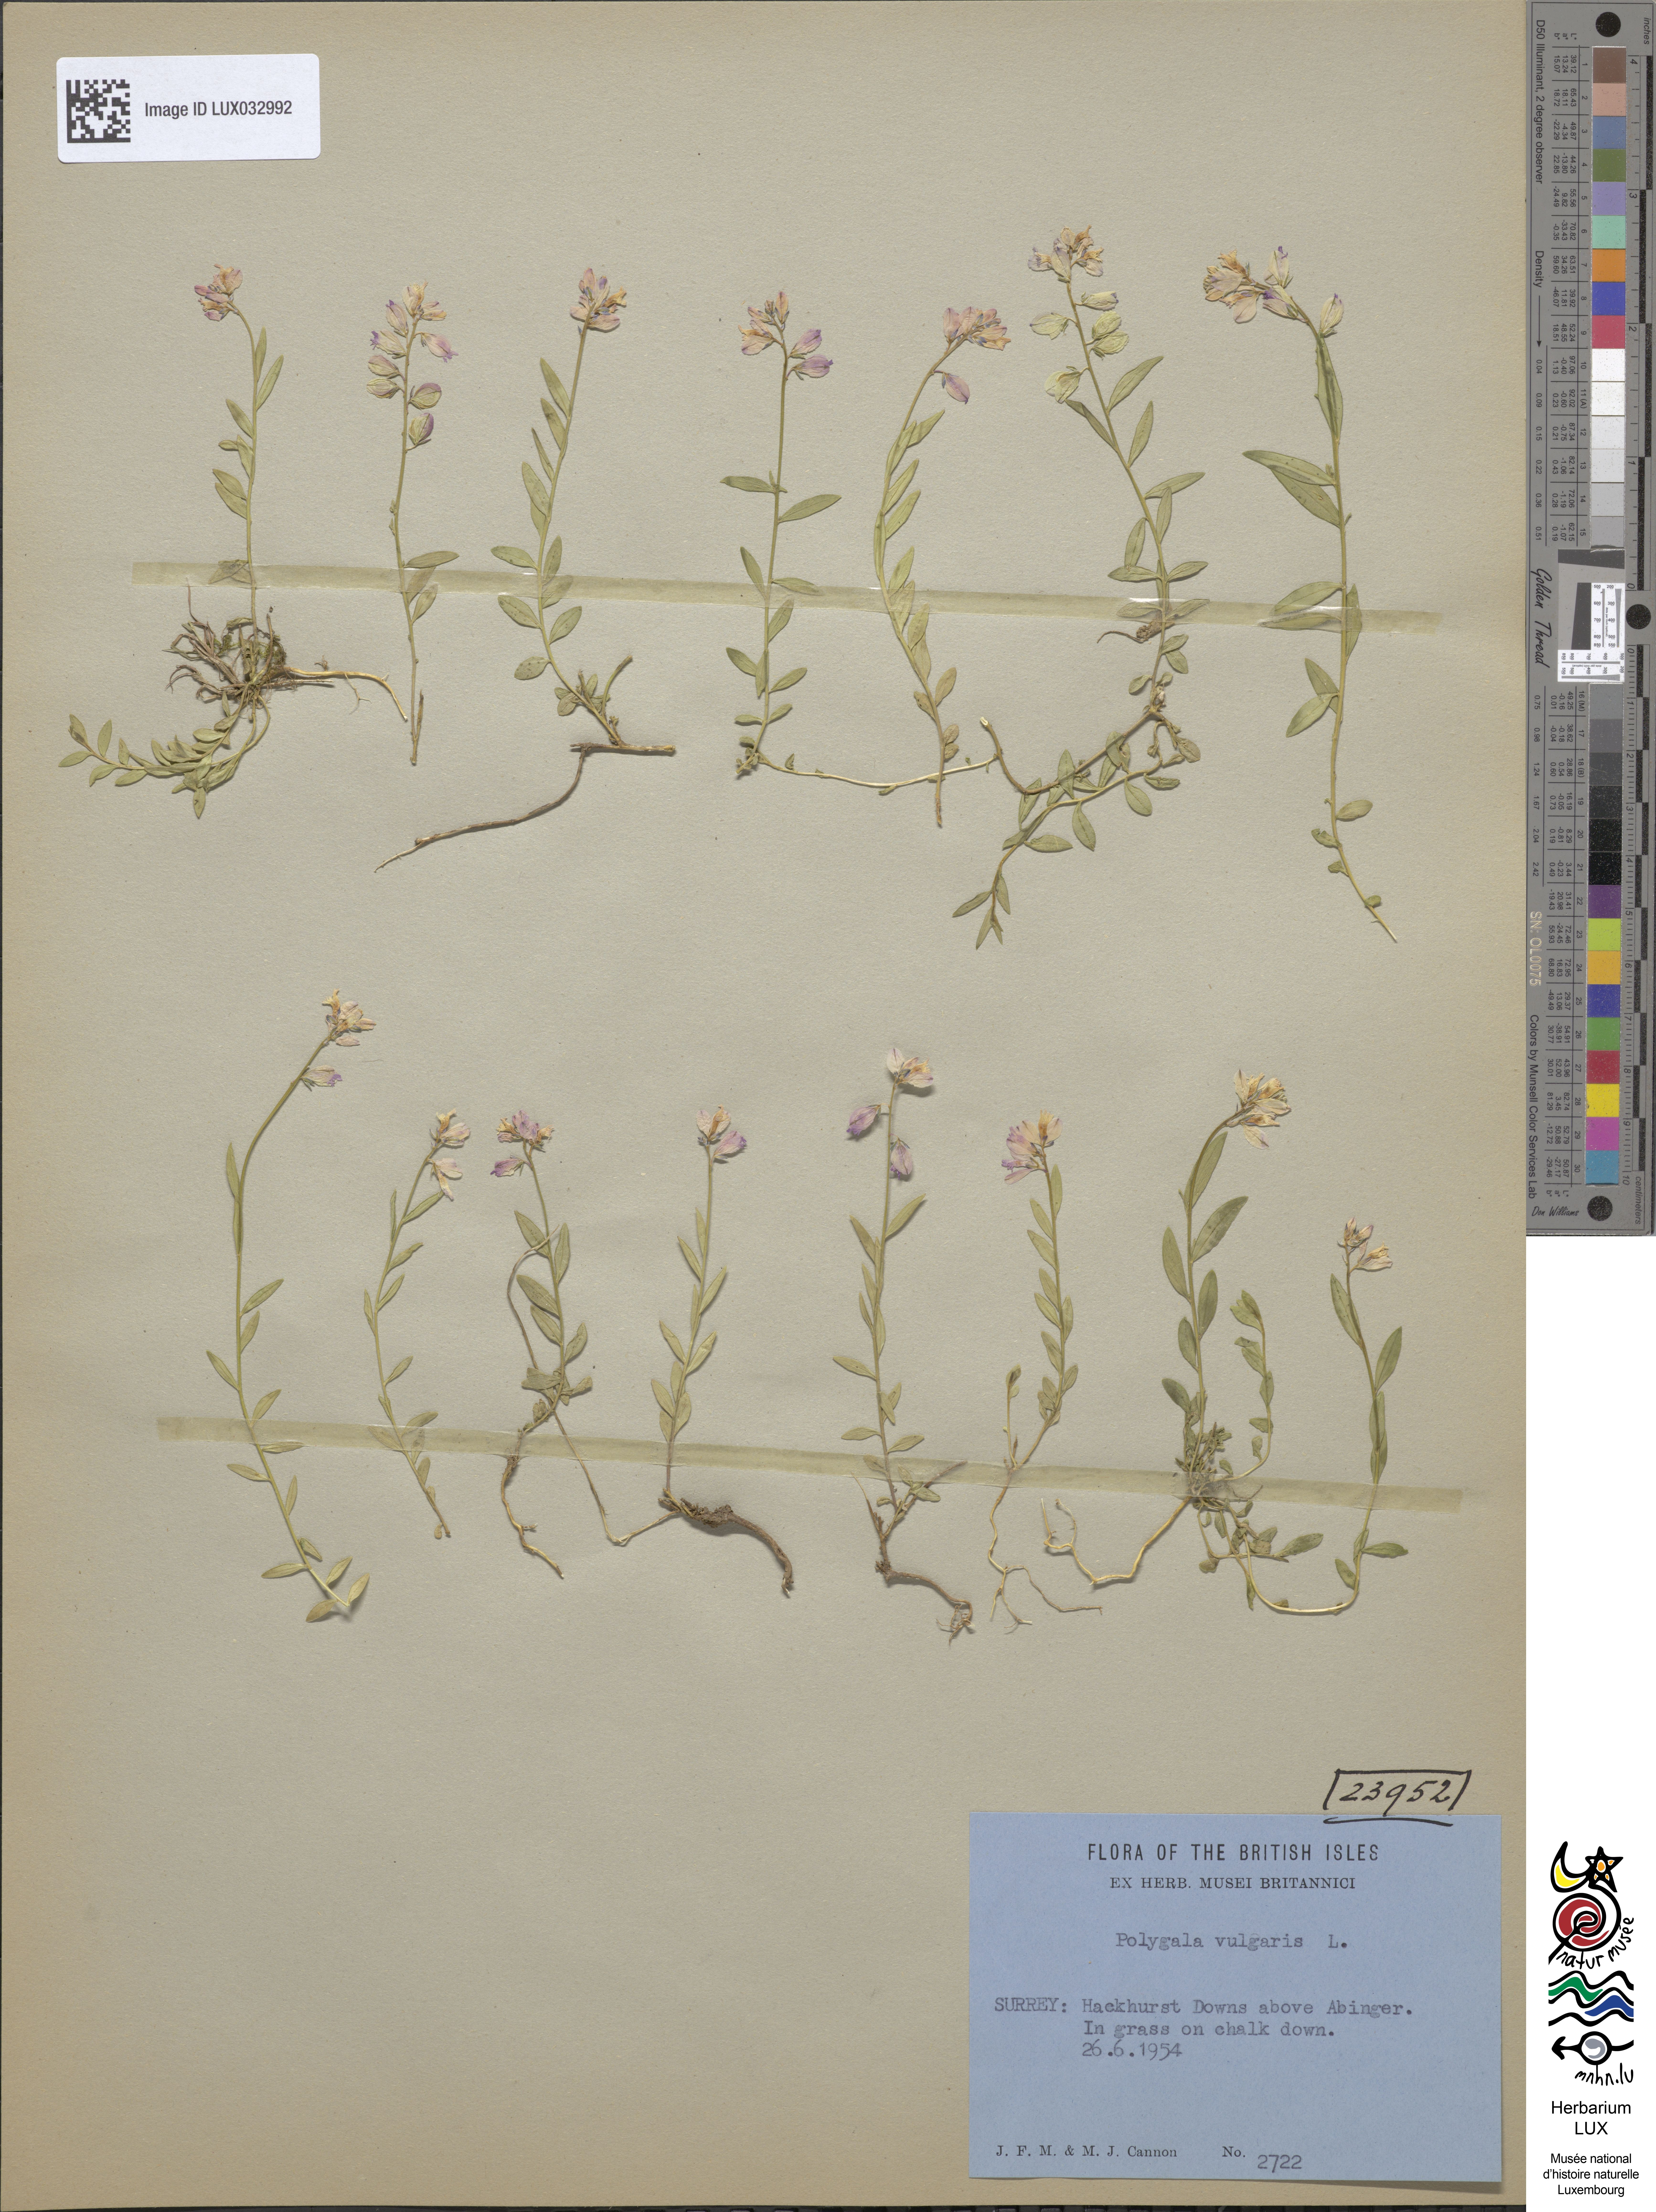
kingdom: Plantae
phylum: Tracheophyta
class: Magnoliopsida
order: Fabales
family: Polygalaceae
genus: Polygala
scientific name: Polygala vulgaris
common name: Common milkwort
